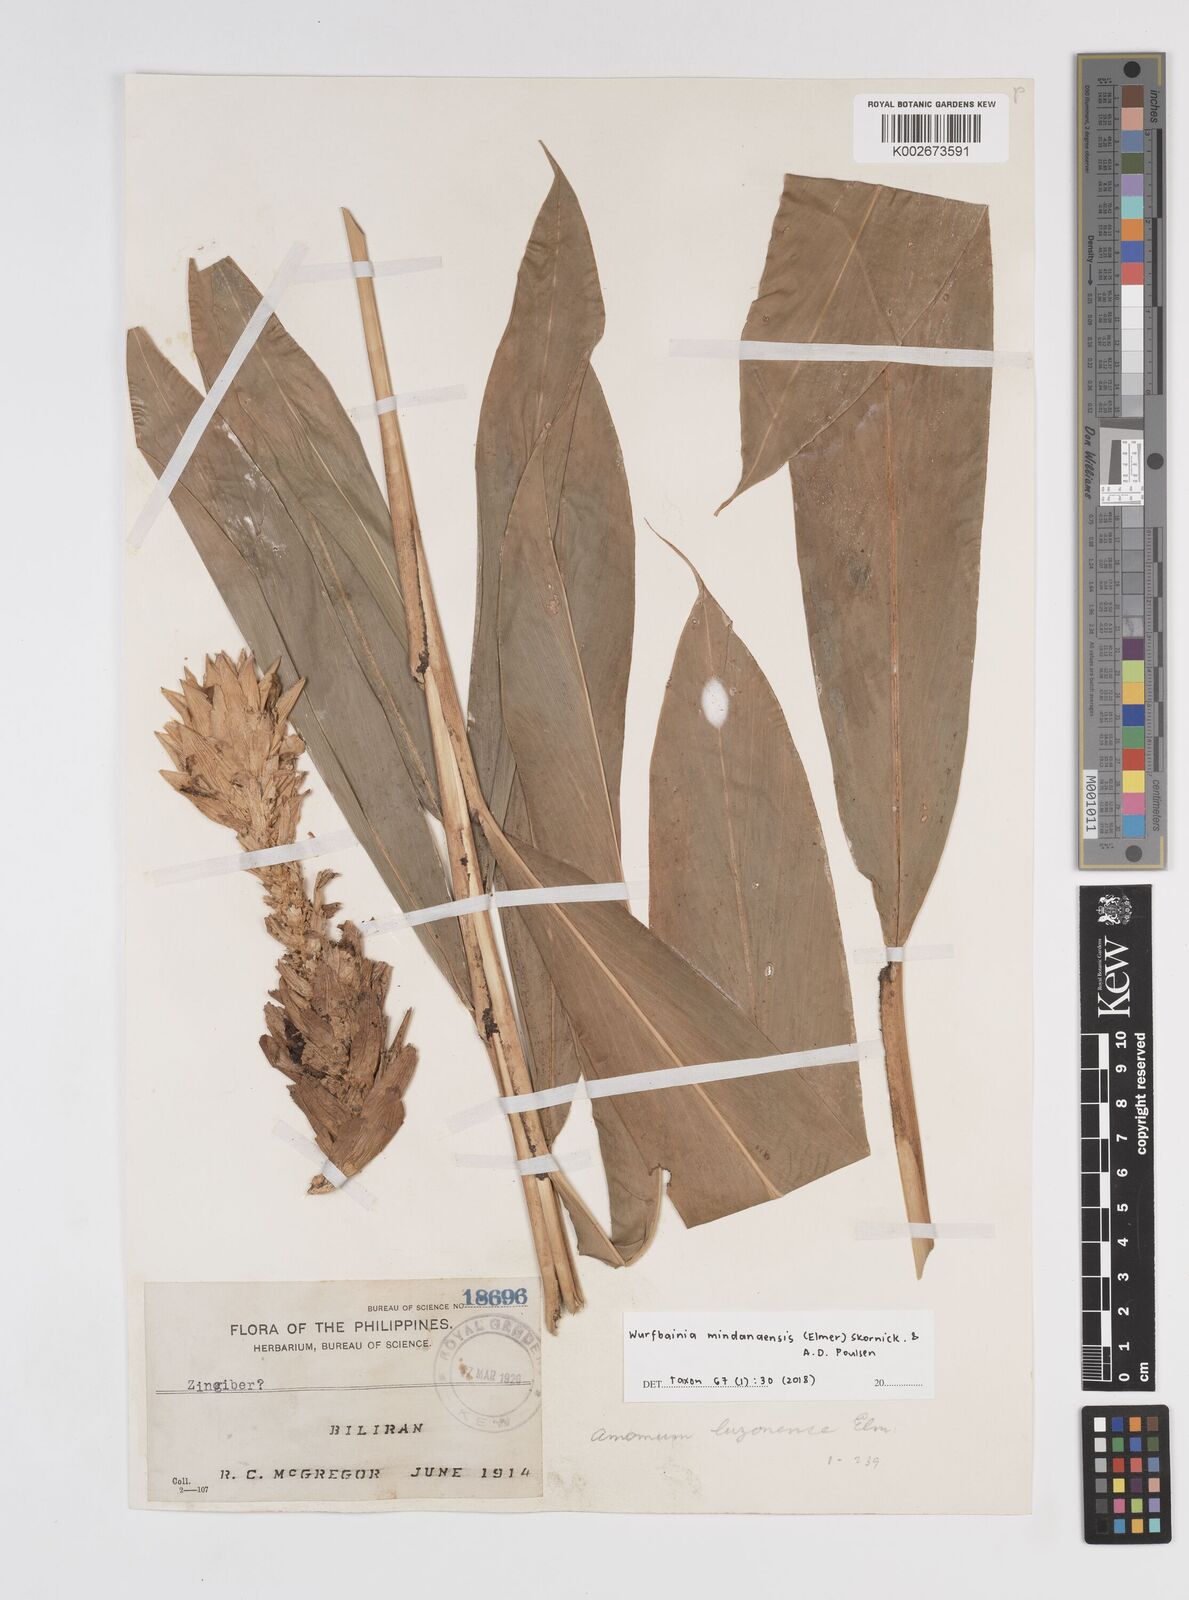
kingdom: Plantae
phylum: Tracheophyta
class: Liliopsida
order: Zingiberales
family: Zingiberaceae
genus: Wurfbainia
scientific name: Wurfbainia mindanaensis
